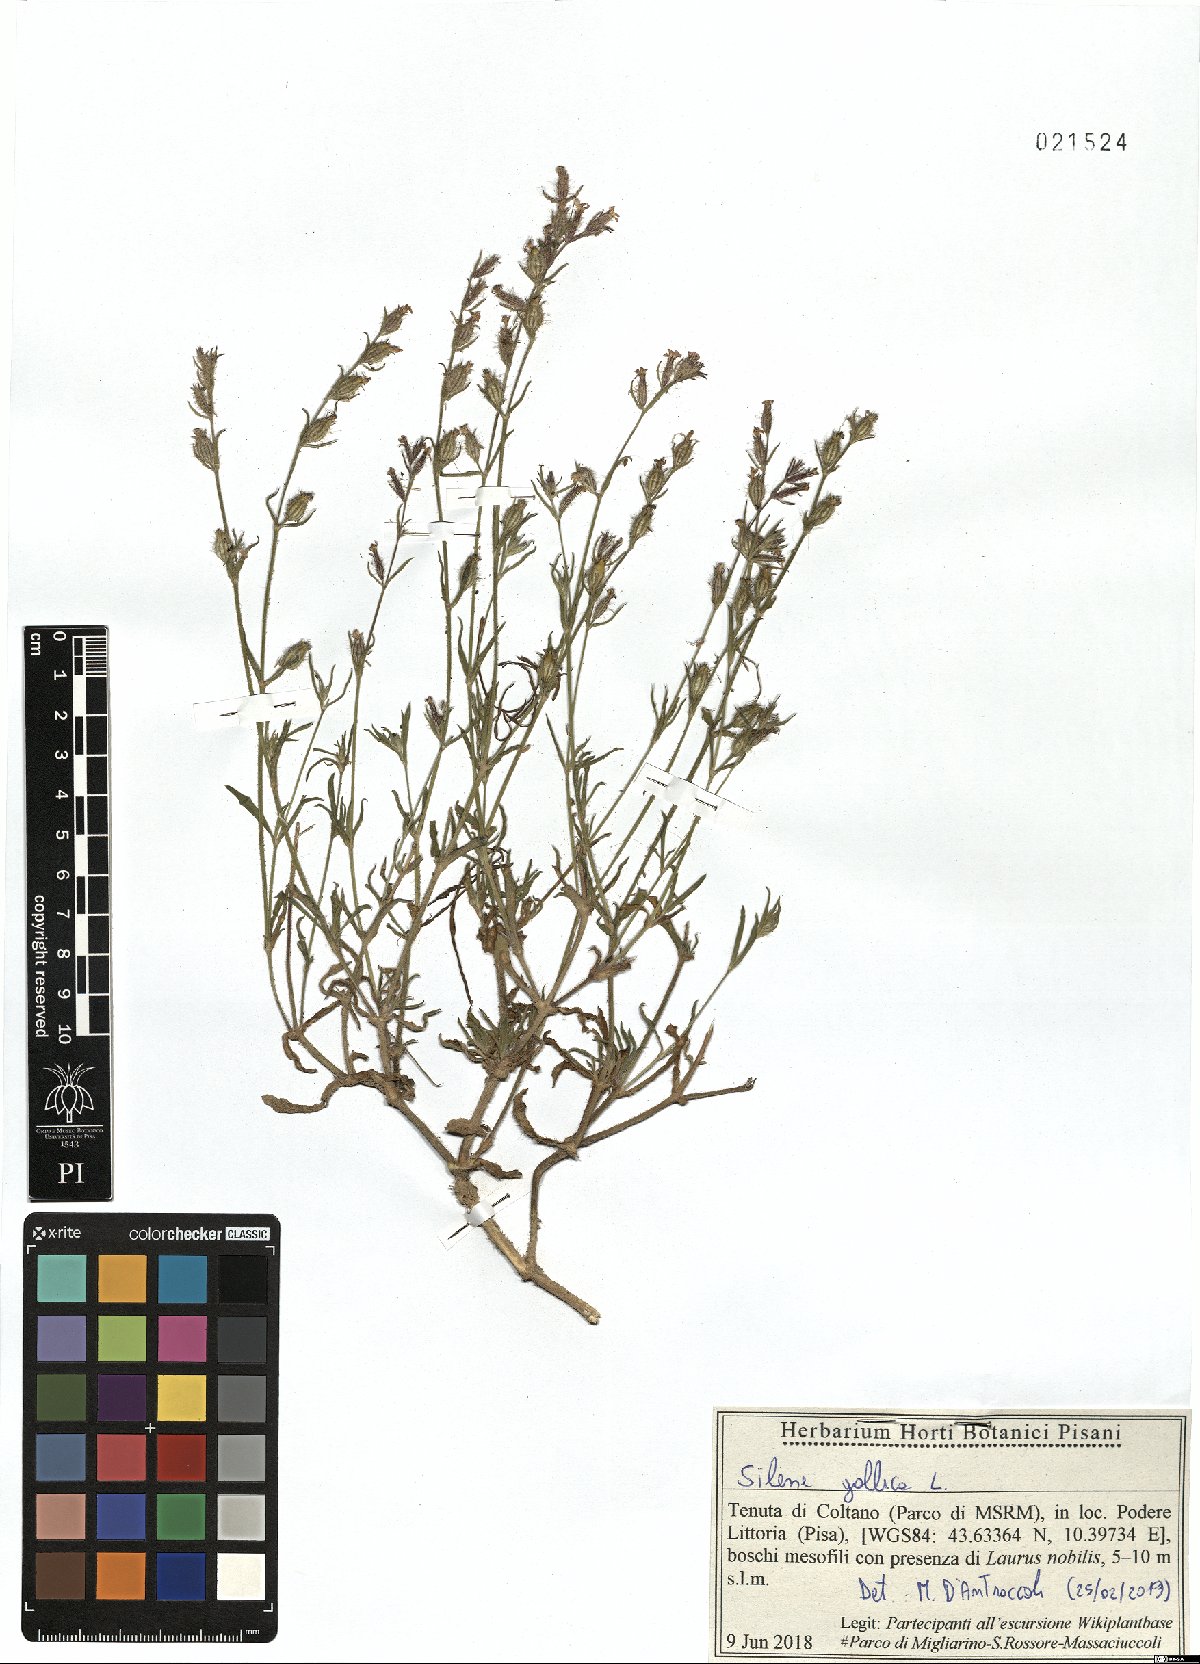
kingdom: Plantae
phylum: Tracheophyta
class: Magnoliopsida
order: Caryophyllales
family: Caryophyllaceae
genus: Silene
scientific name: Silene gallica
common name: Small-flowered catchfly
